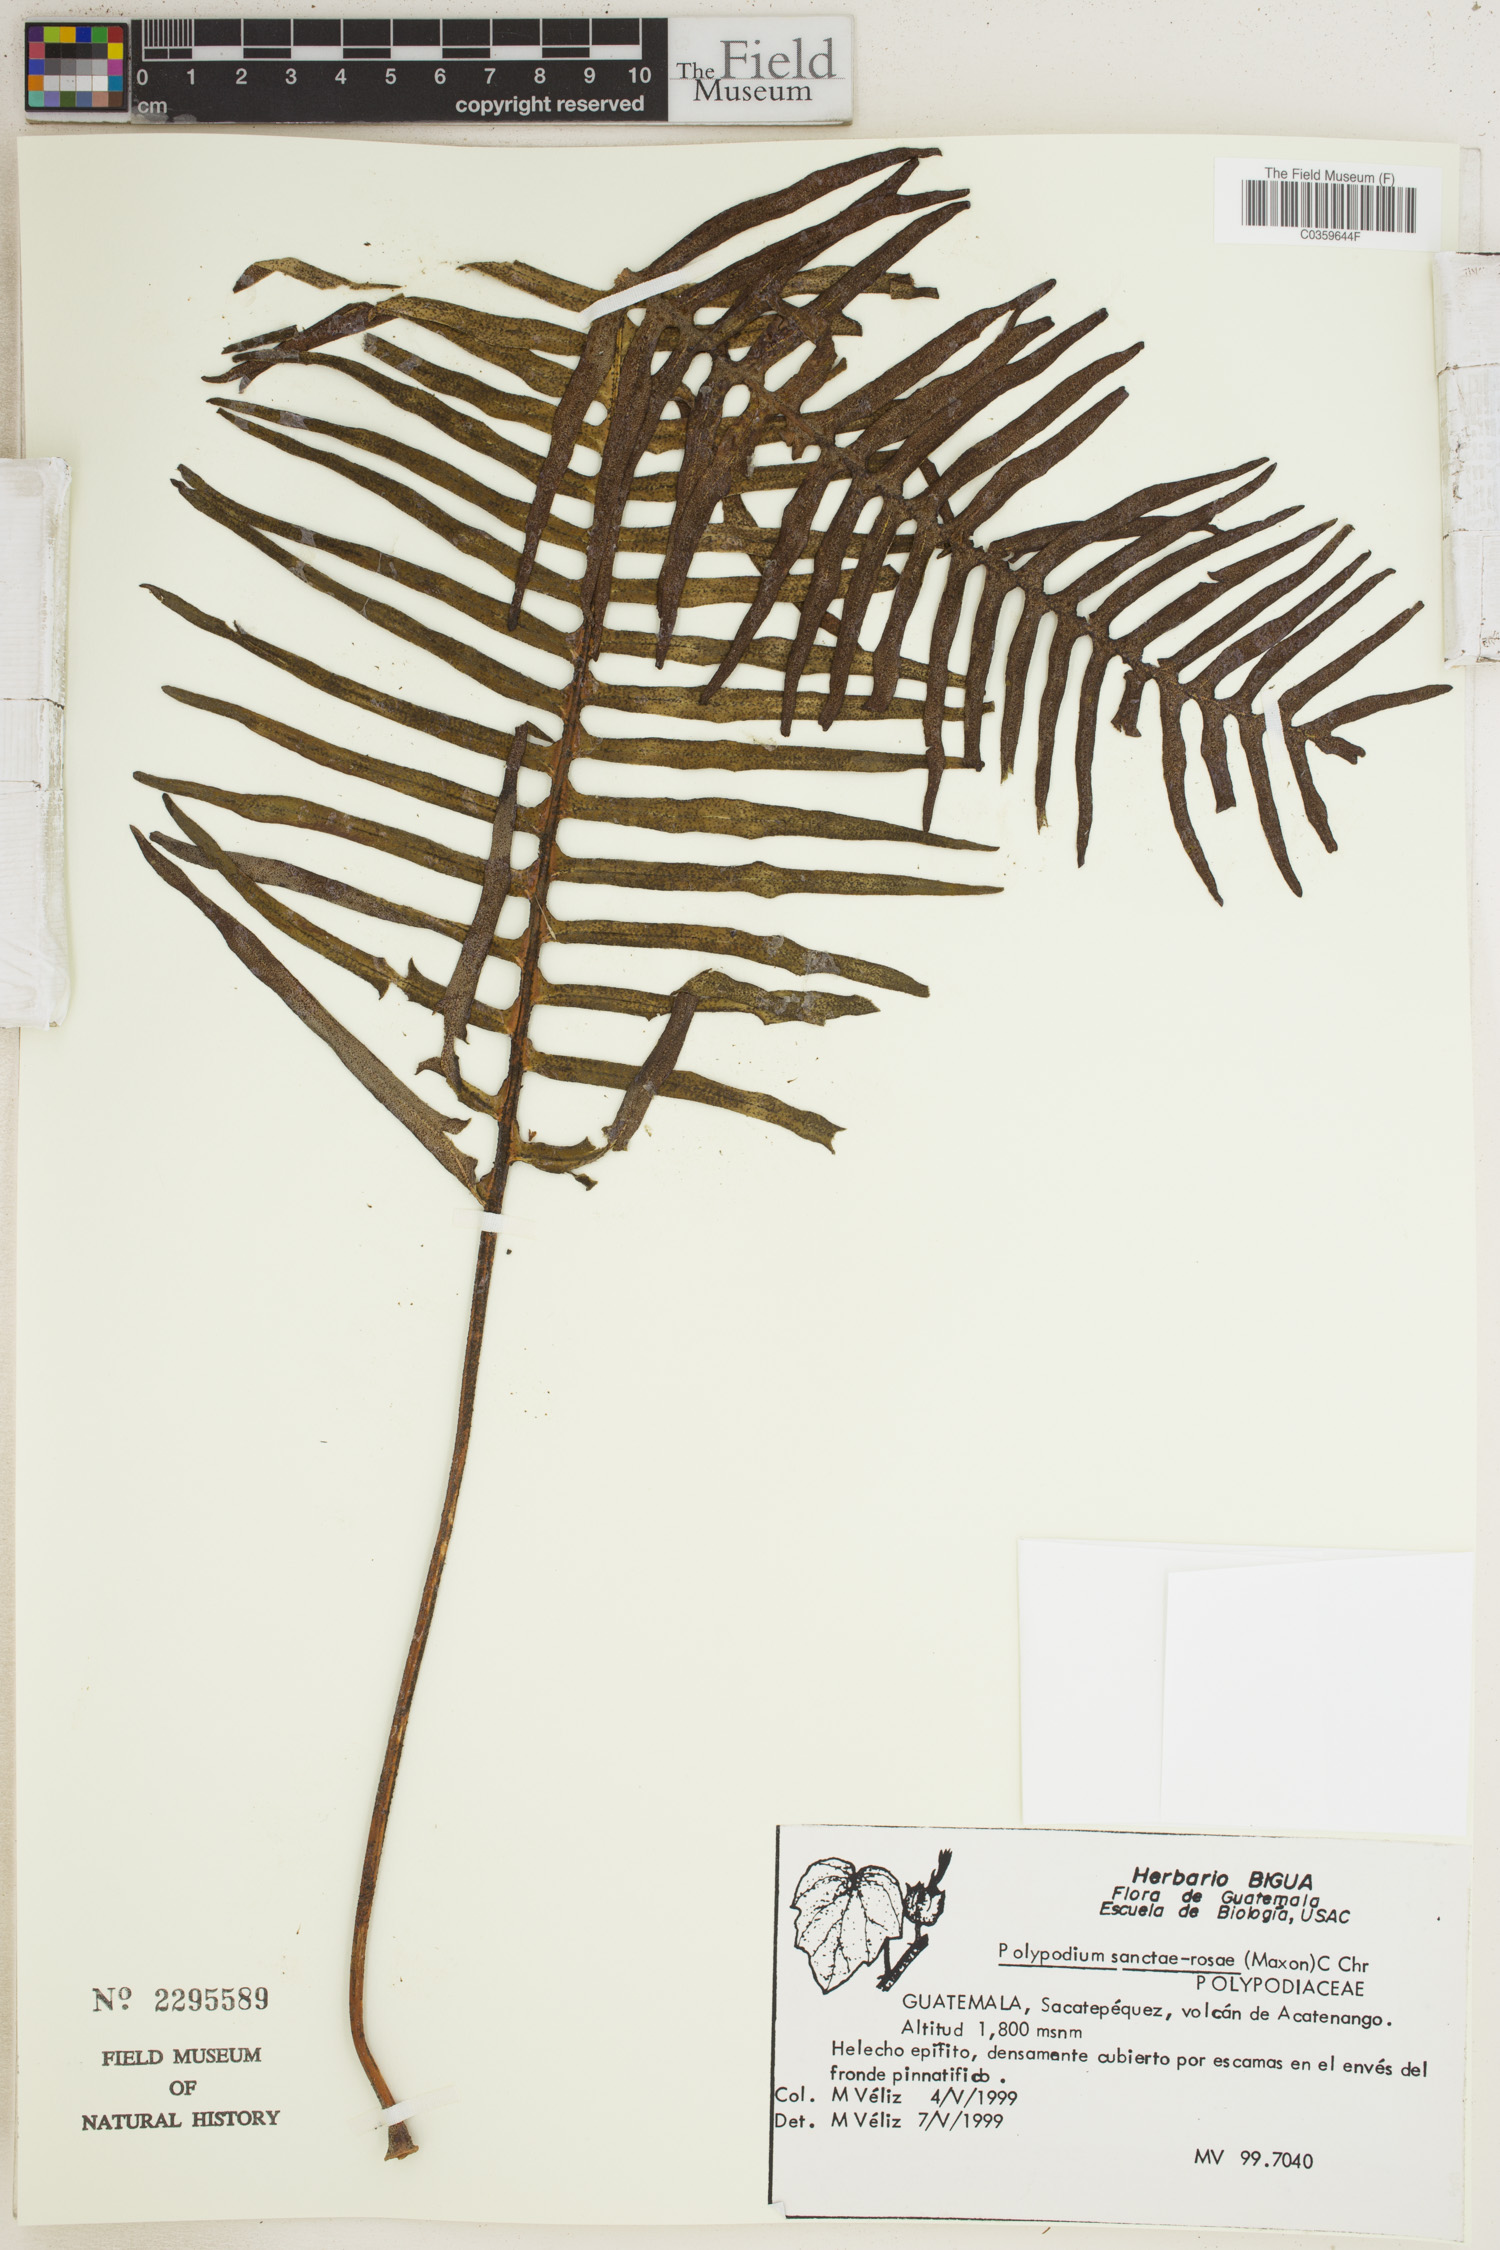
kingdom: Plantae
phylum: Tracheophyta
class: Polypodiopsida
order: Polypodiales
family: Polypodiaceae
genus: Pleopeltis
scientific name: Pleopeltis sanctae-rosae
